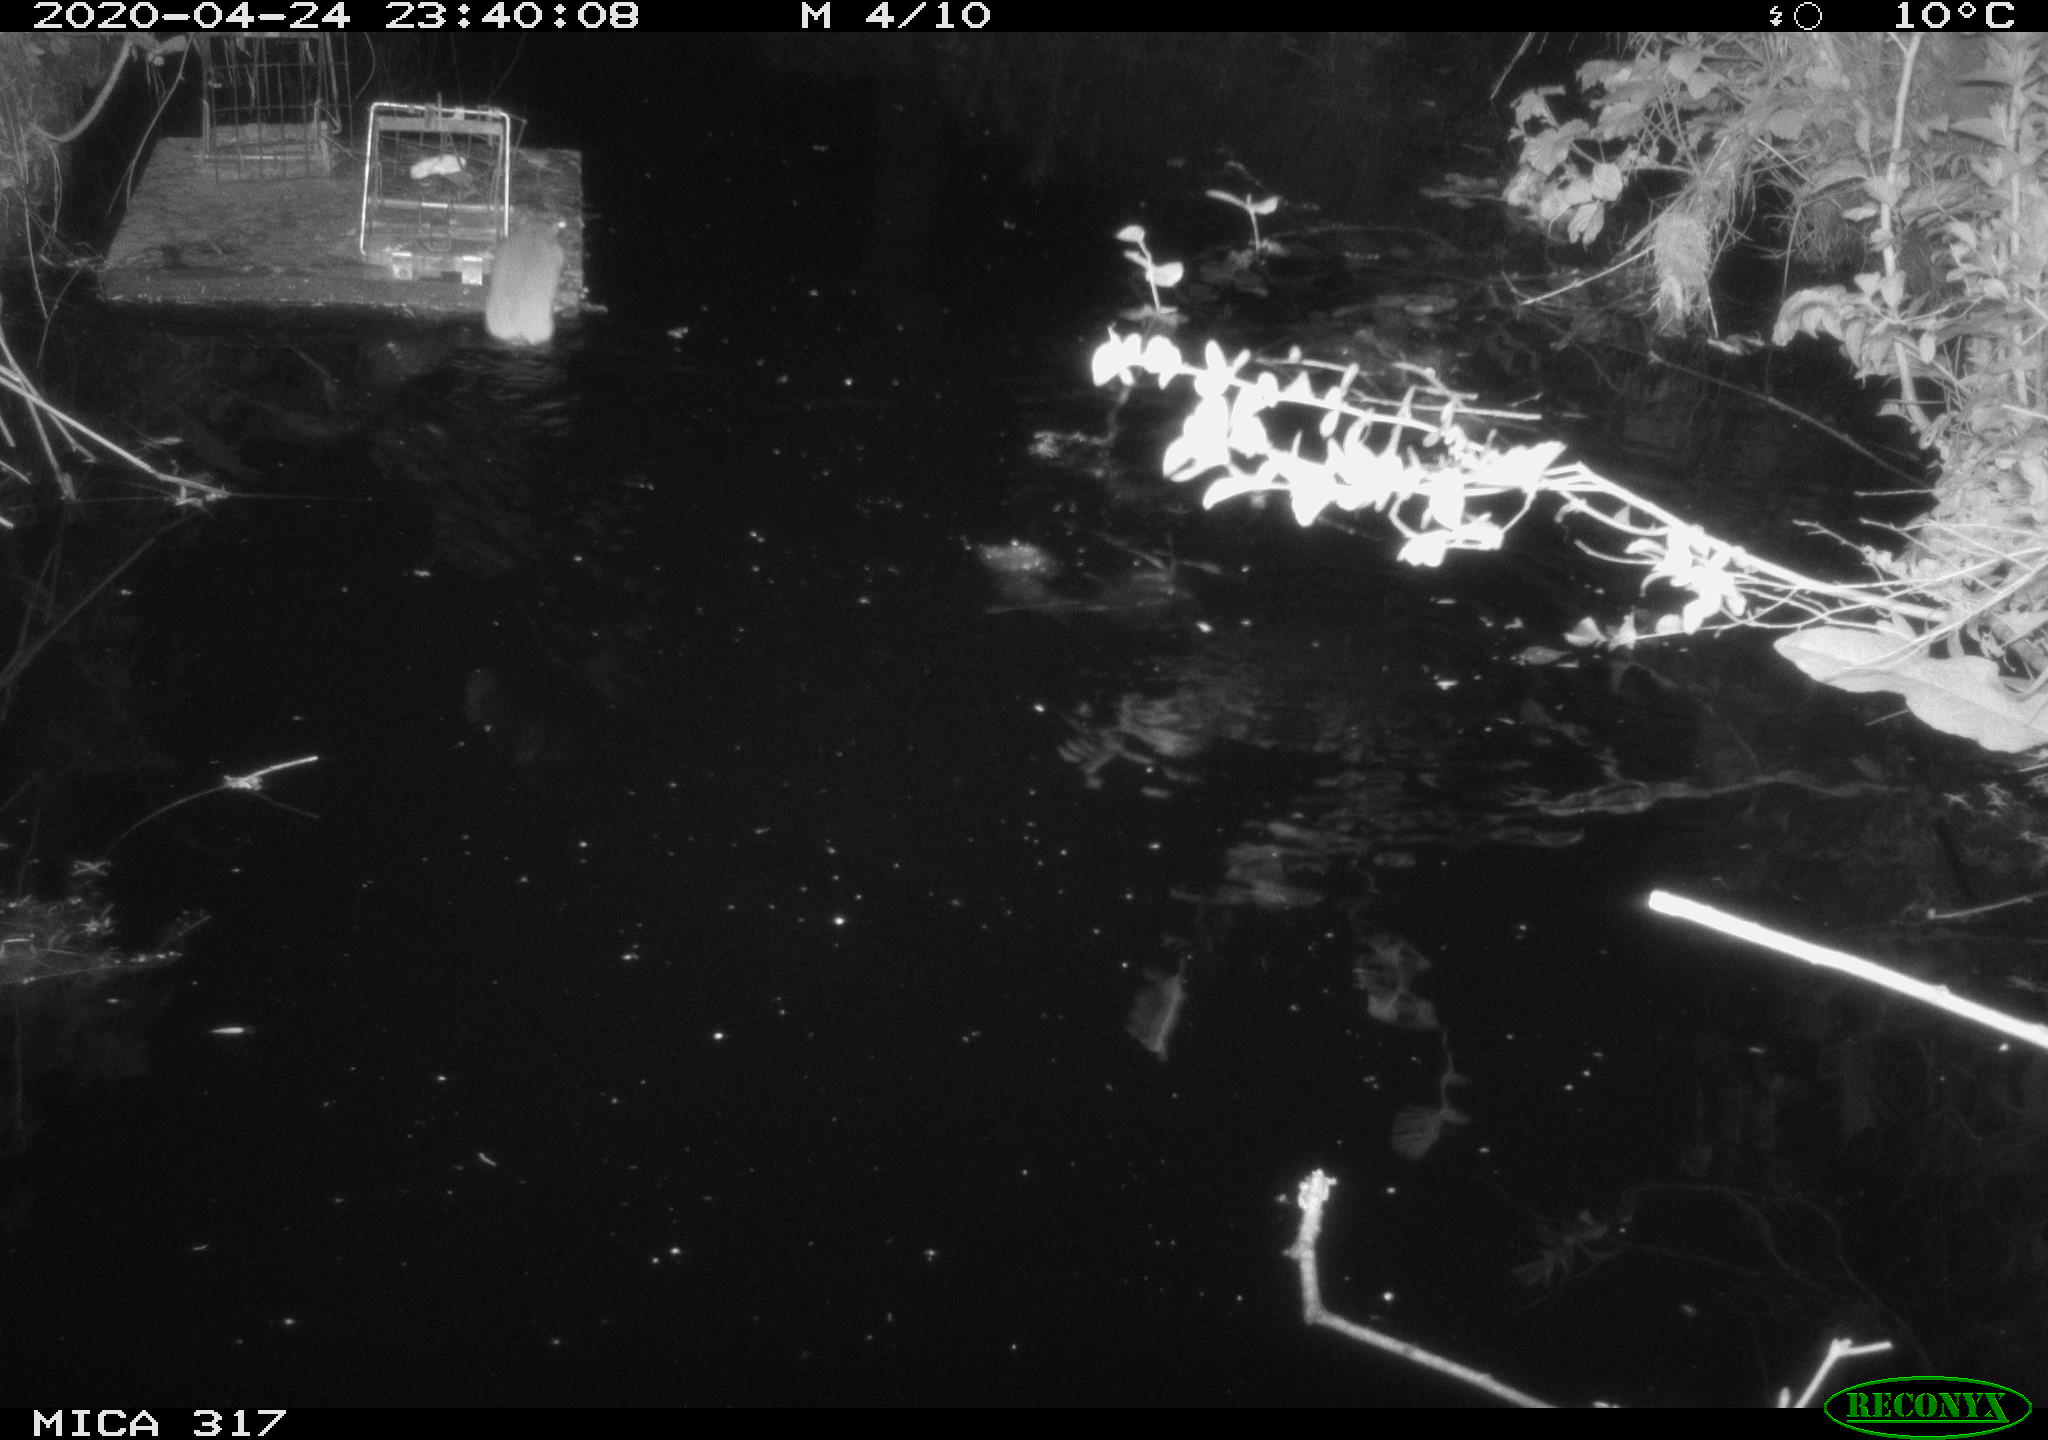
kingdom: Animalia
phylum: Chordata
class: Mammalia
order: Rodentia
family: Muridae
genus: Rattus
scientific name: Rattus norvegicus
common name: Brown rat
